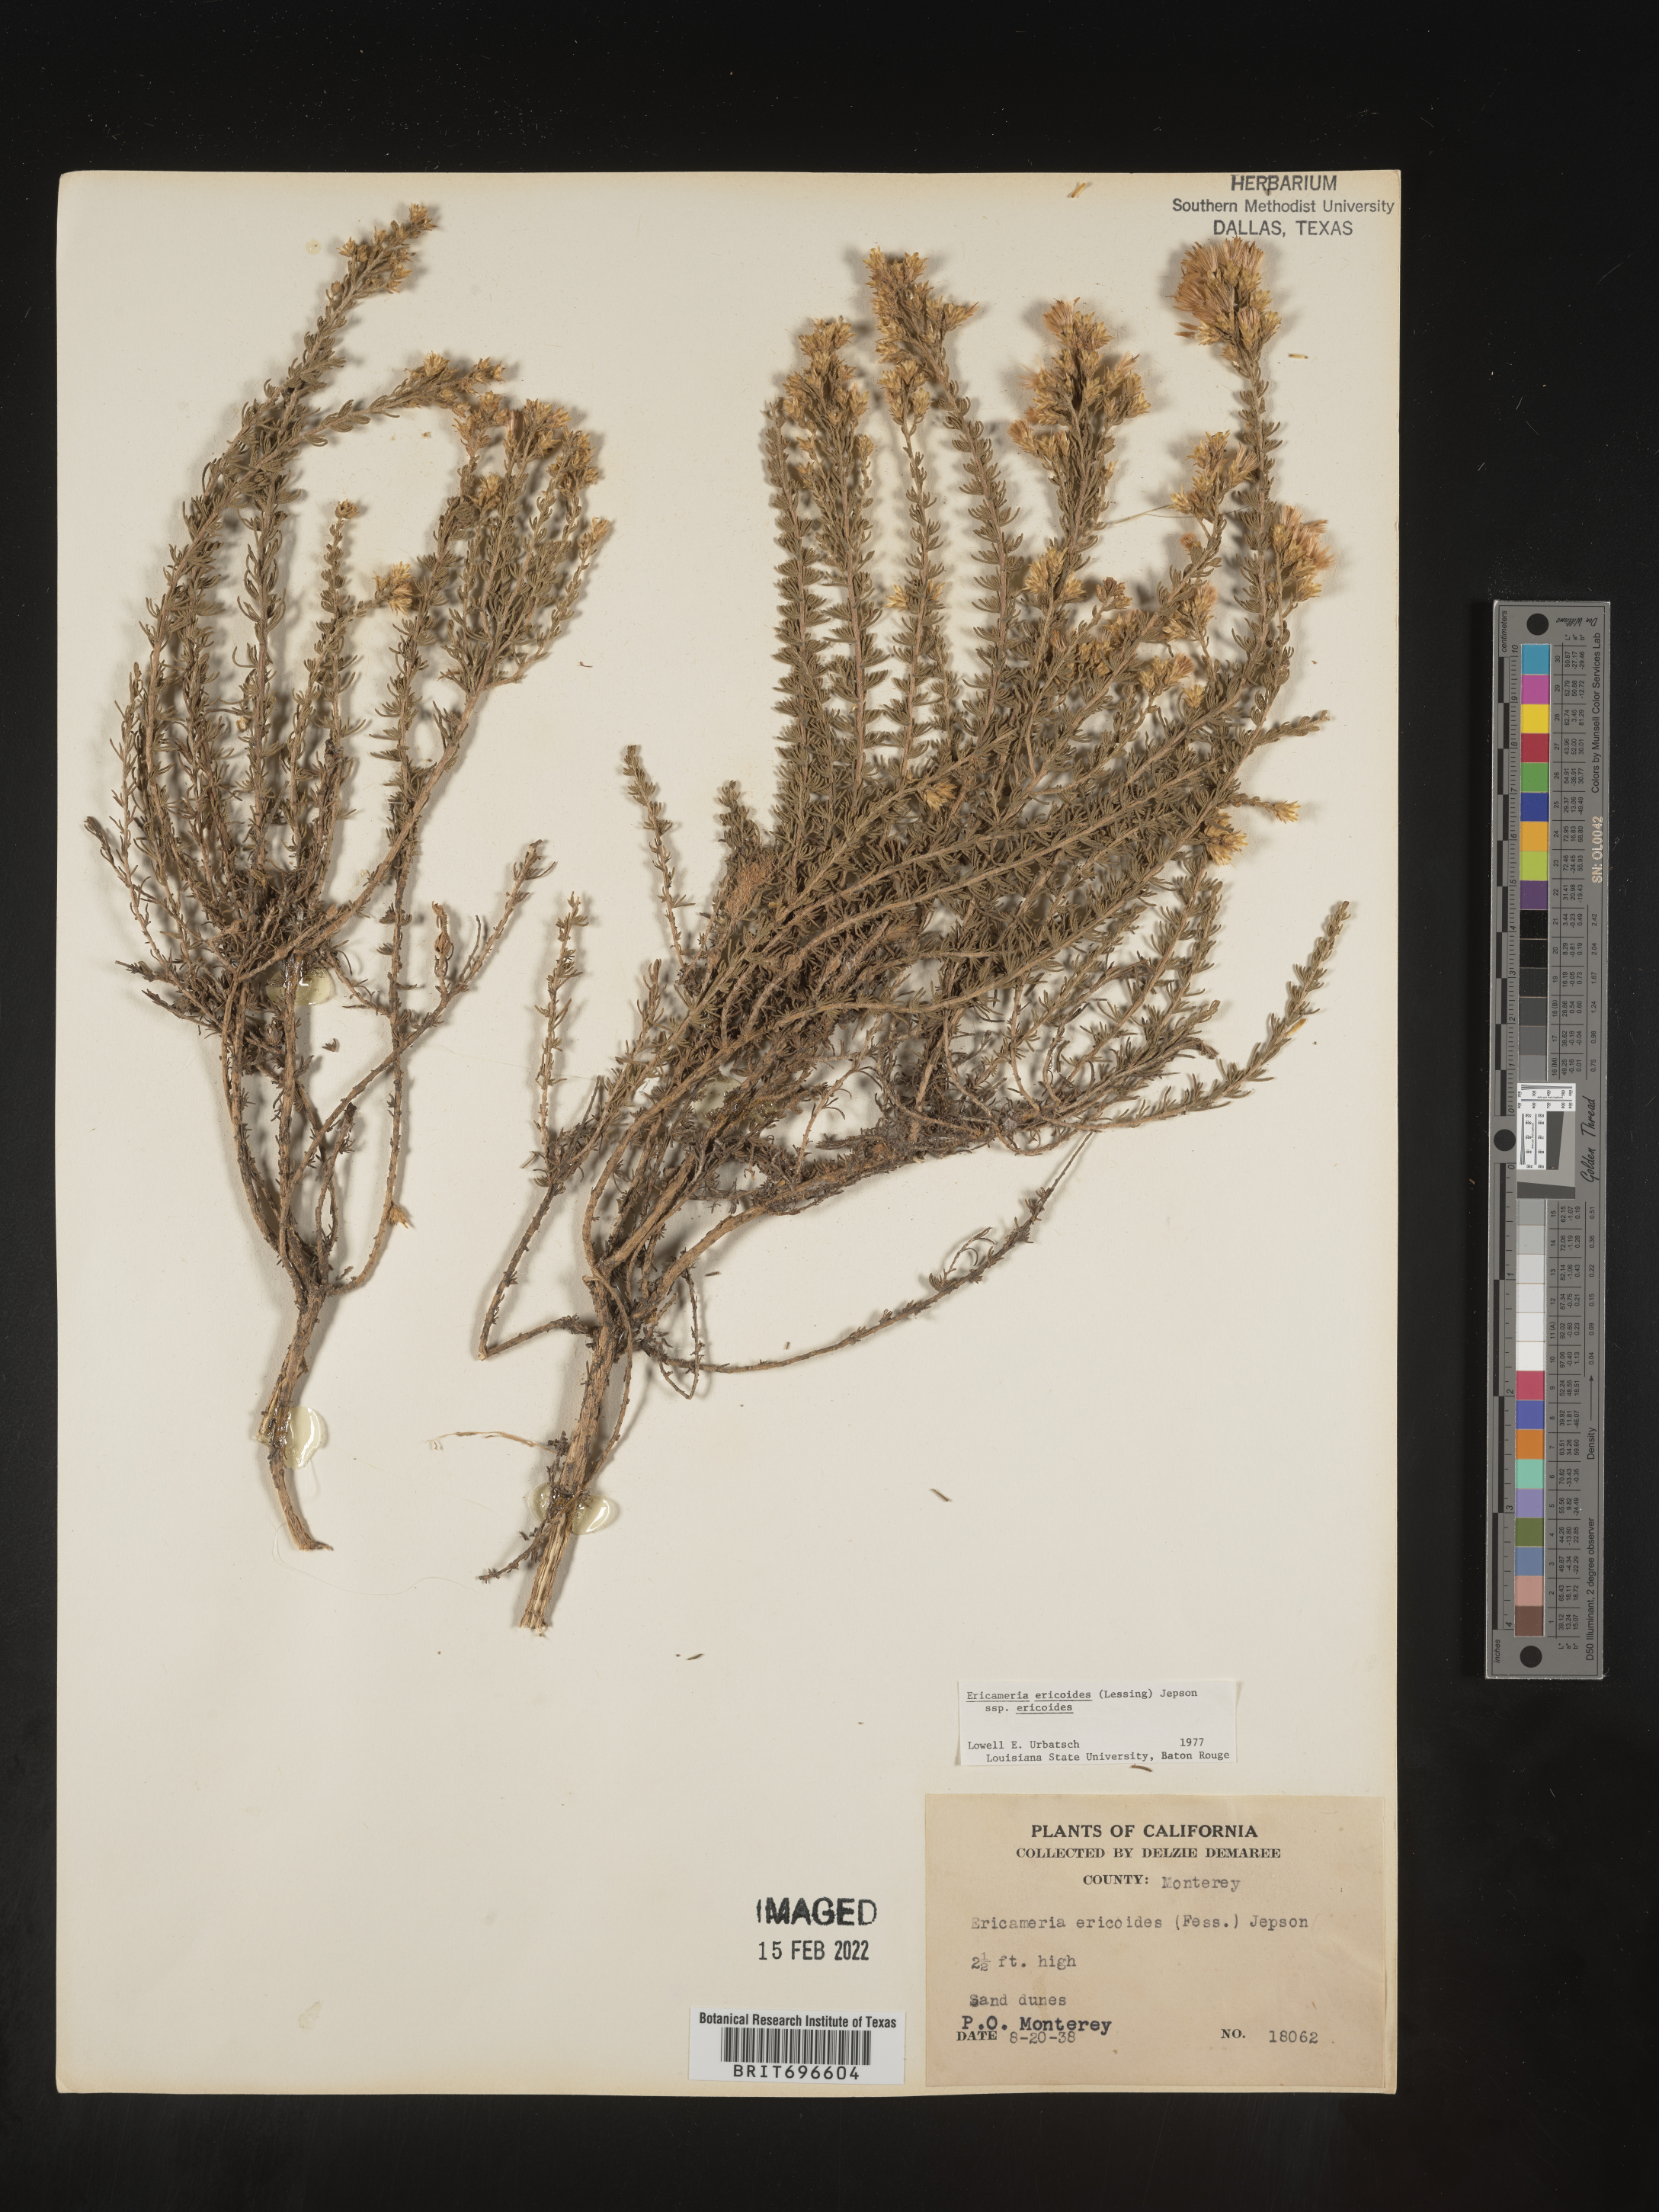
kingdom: Plantae
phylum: Tracheophyta
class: Magnoliopsida
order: Asterales
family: Asteraceae
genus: Ericameria
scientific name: Ericameria ericoides
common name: California goldenbush
